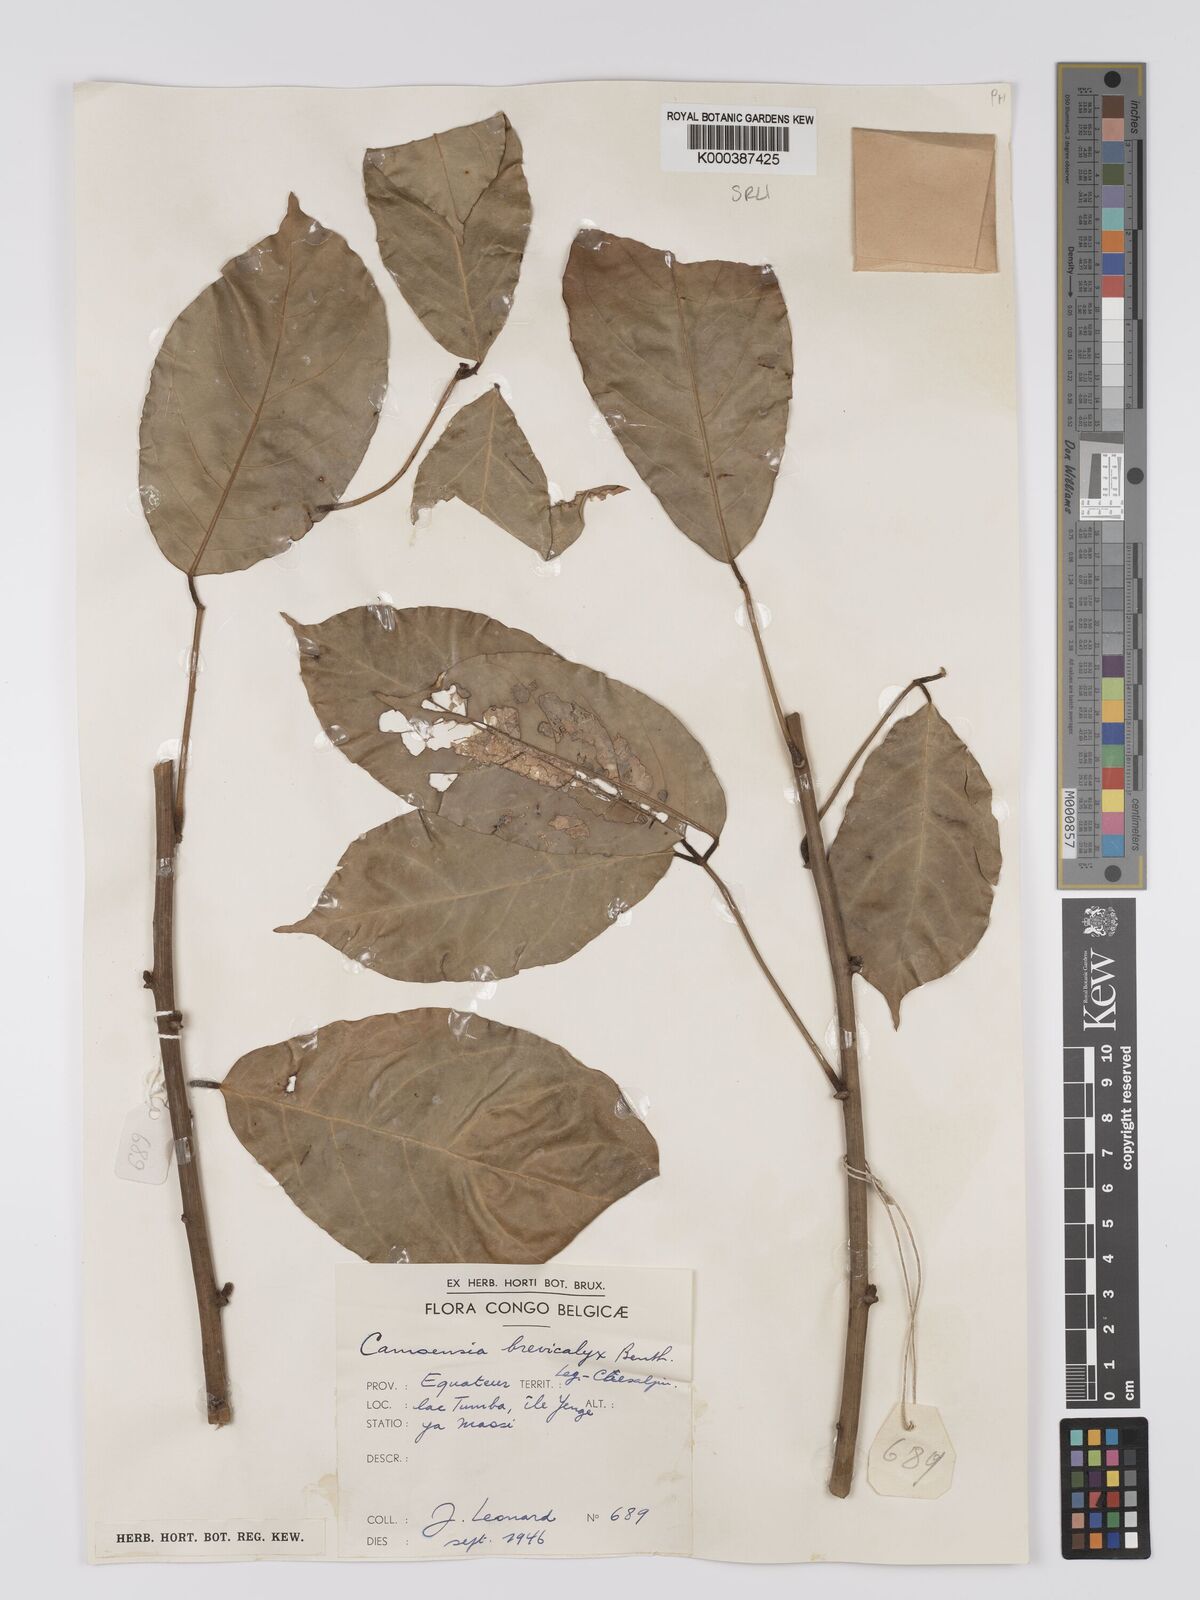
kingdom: Plantae
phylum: Tracheophyta
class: Magnoliopsida
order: Fabales
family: Fabaceae
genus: Camoensia
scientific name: Camoensia brevicalyx
